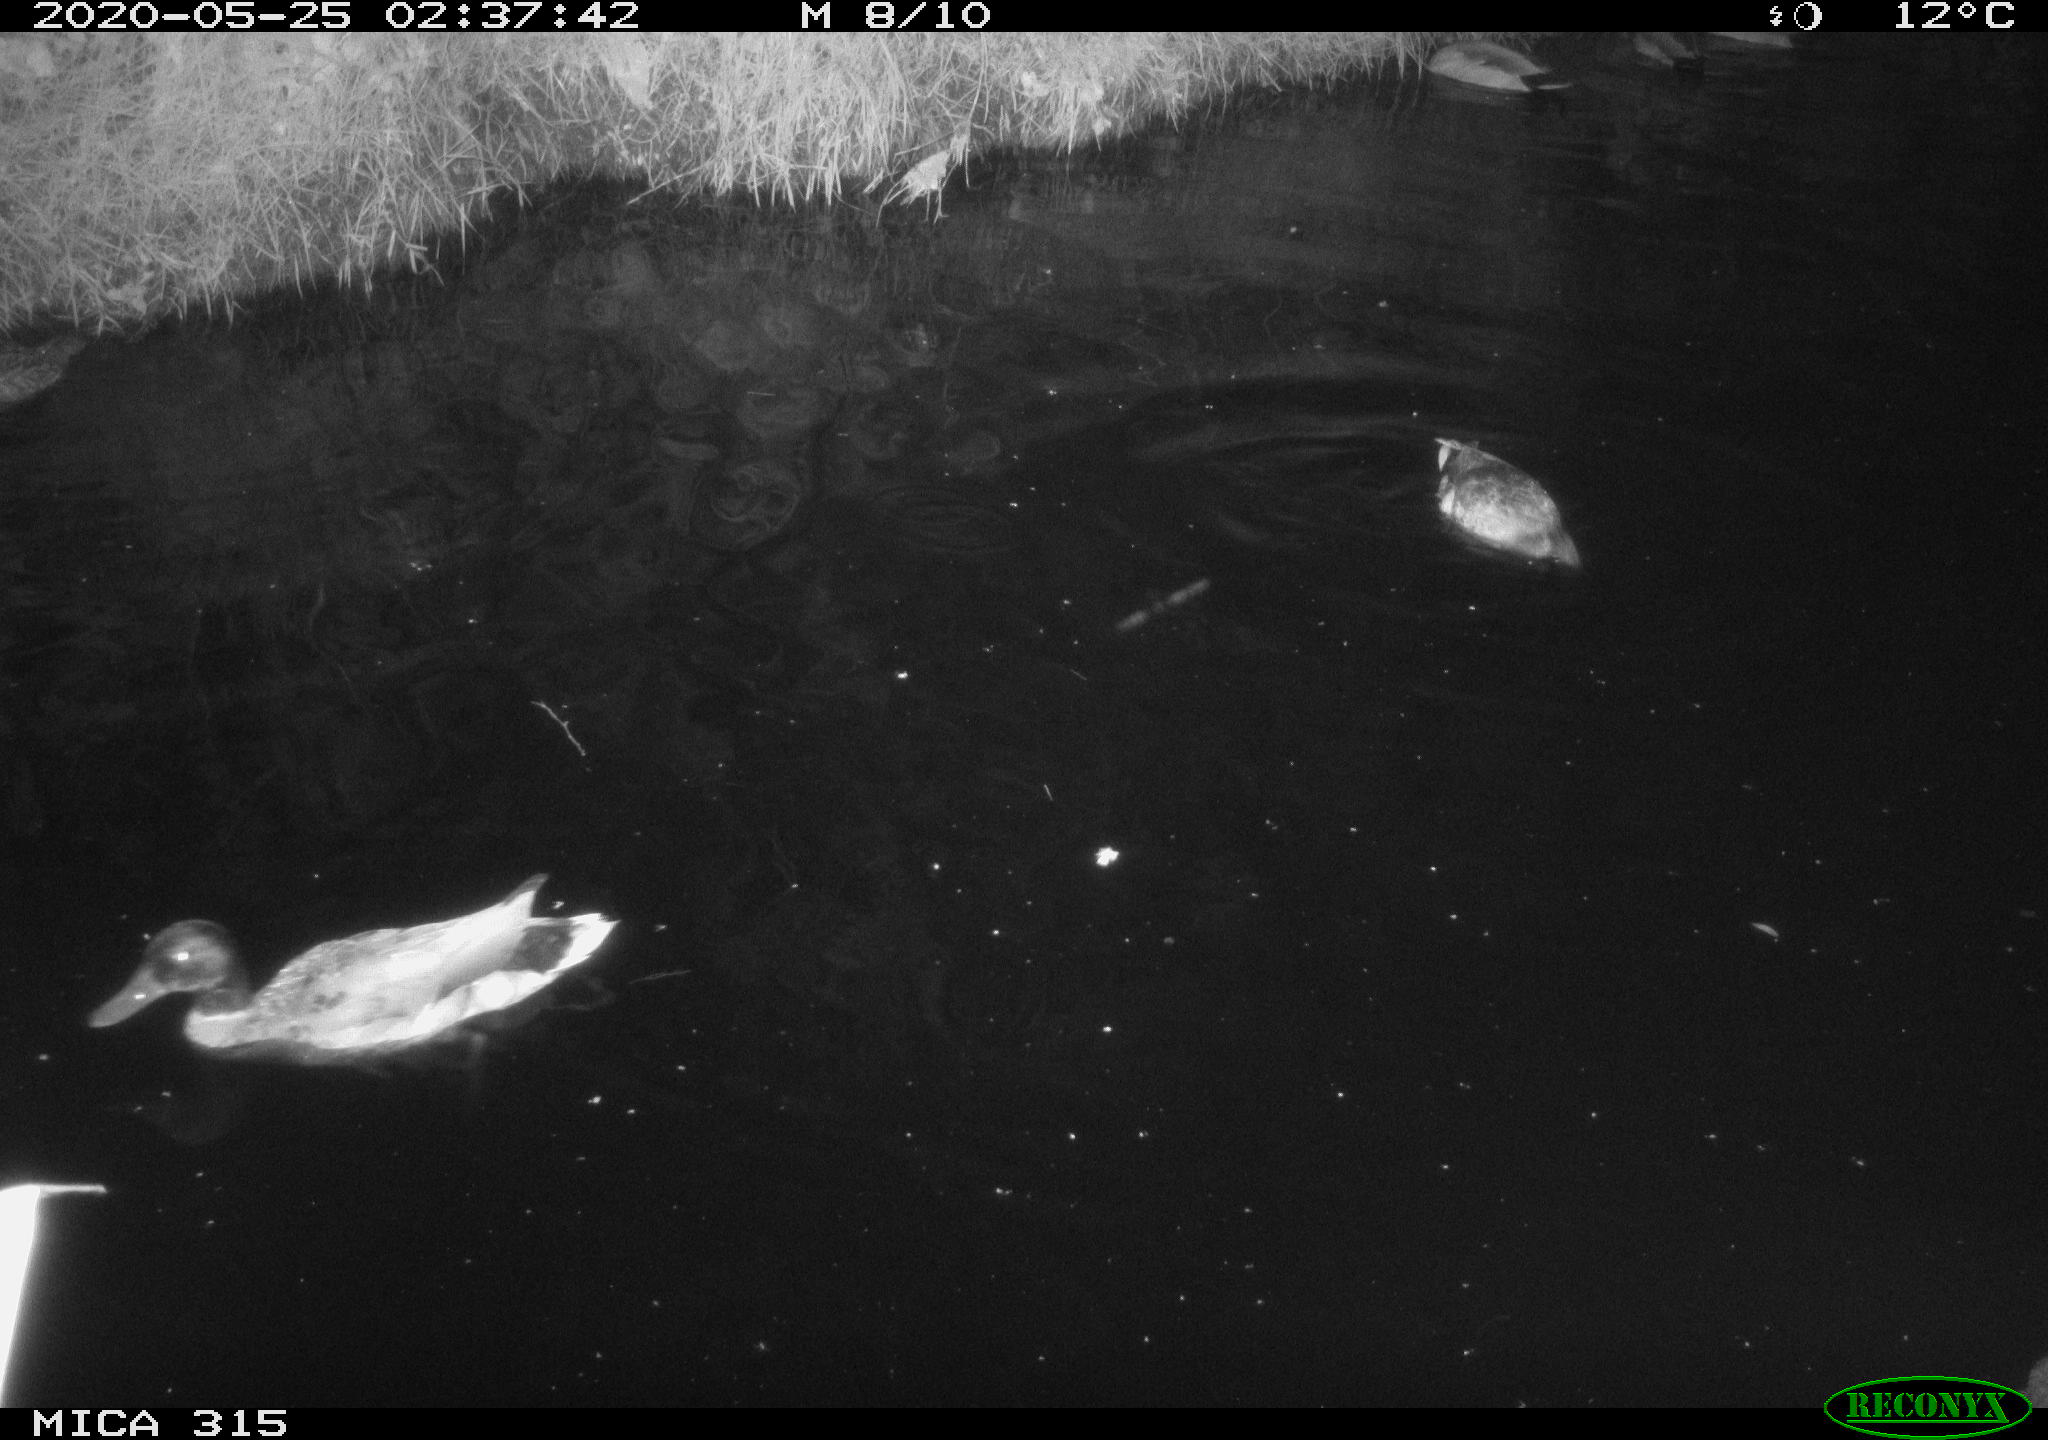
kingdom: Animalia
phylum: Chordata
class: Aves
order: Anseriformes
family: Anatidae
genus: Anas
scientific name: Anas platyrhynchos
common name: Mallard
